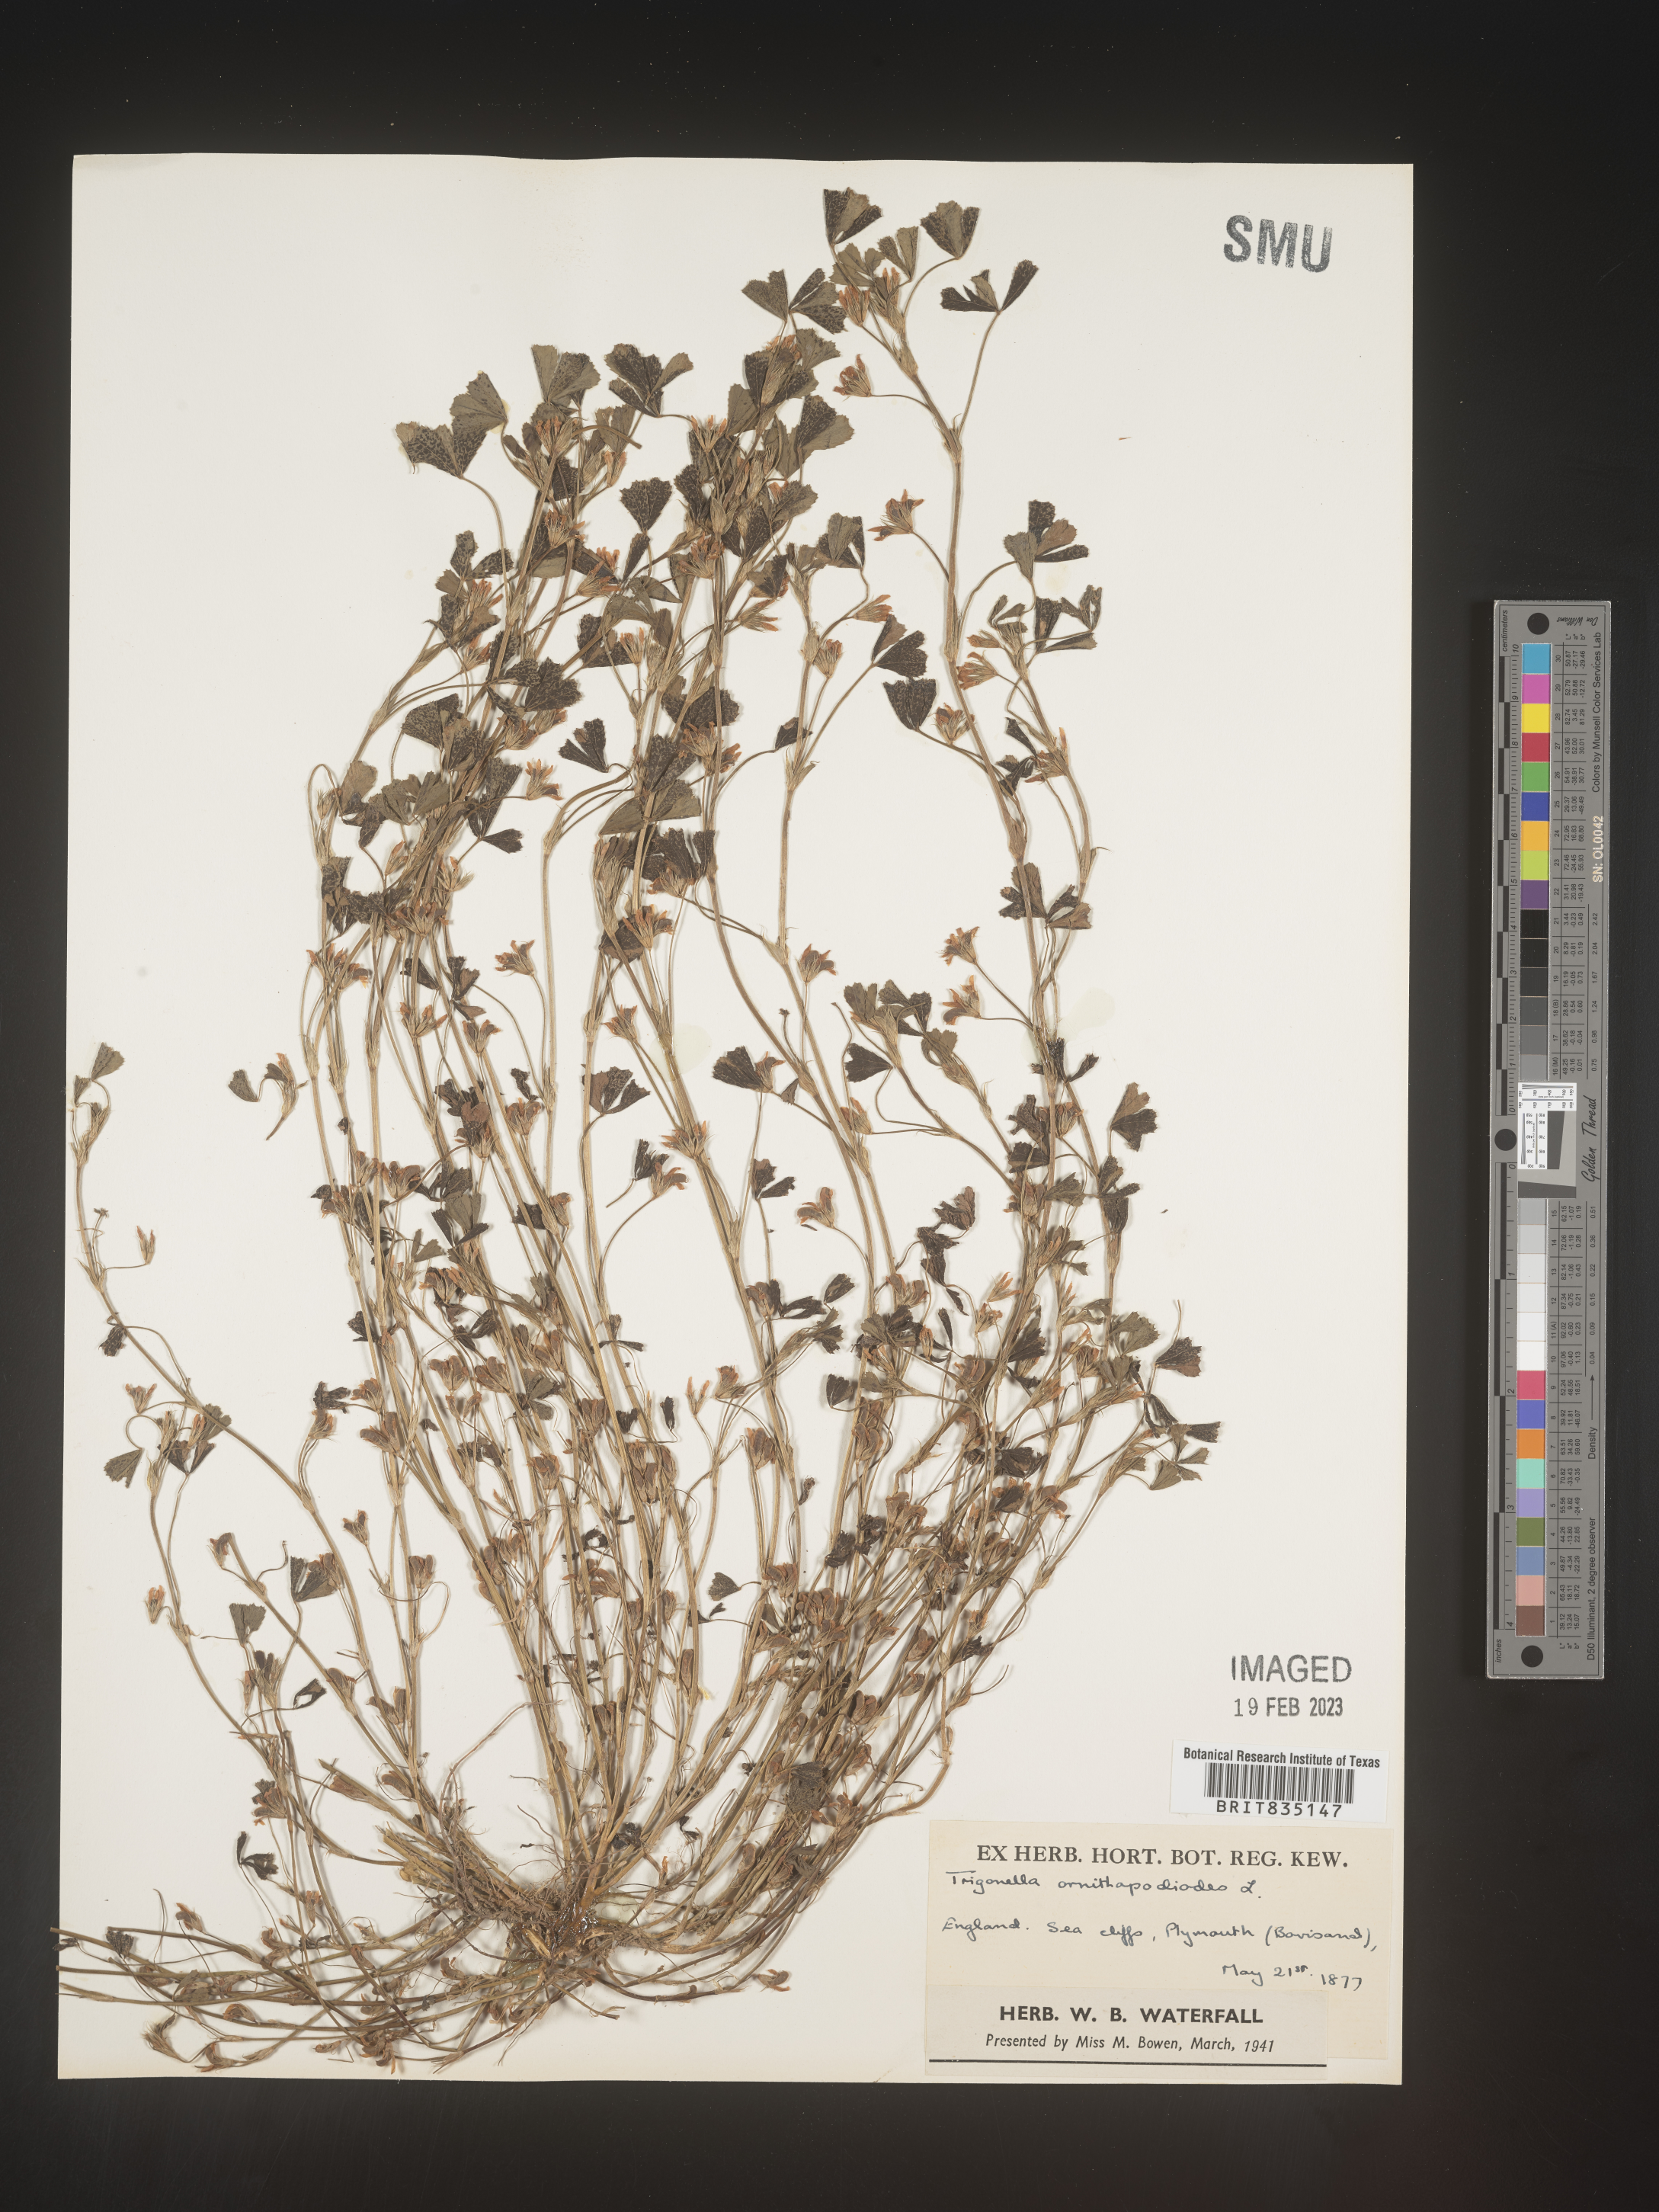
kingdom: Plantae
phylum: Tracheophyta
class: Magnoliopsida
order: Fabales
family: Fabaceae
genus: Trigonella
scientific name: Trigonella
